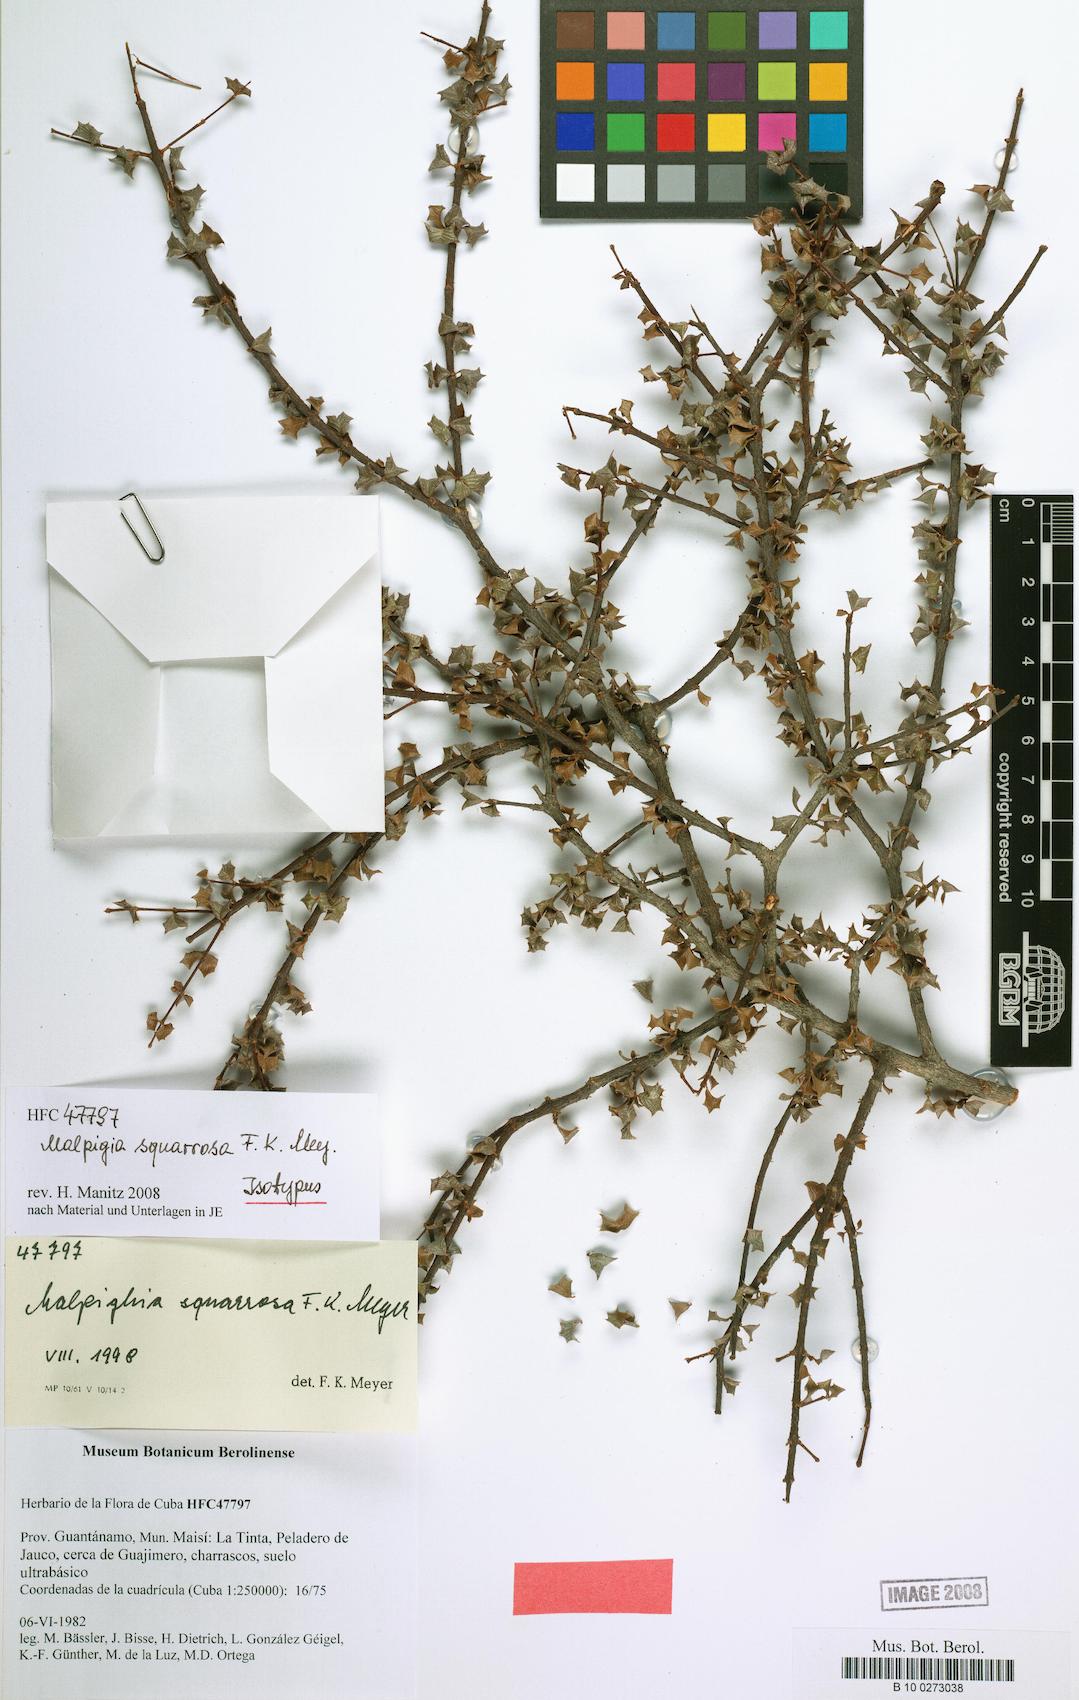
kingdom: Plantae
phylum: Tracheophyta
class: Magnoliopsida
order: Malpighiales
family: Malpighiaceae
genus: Malpighia
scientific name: Malpighia squarrosa
